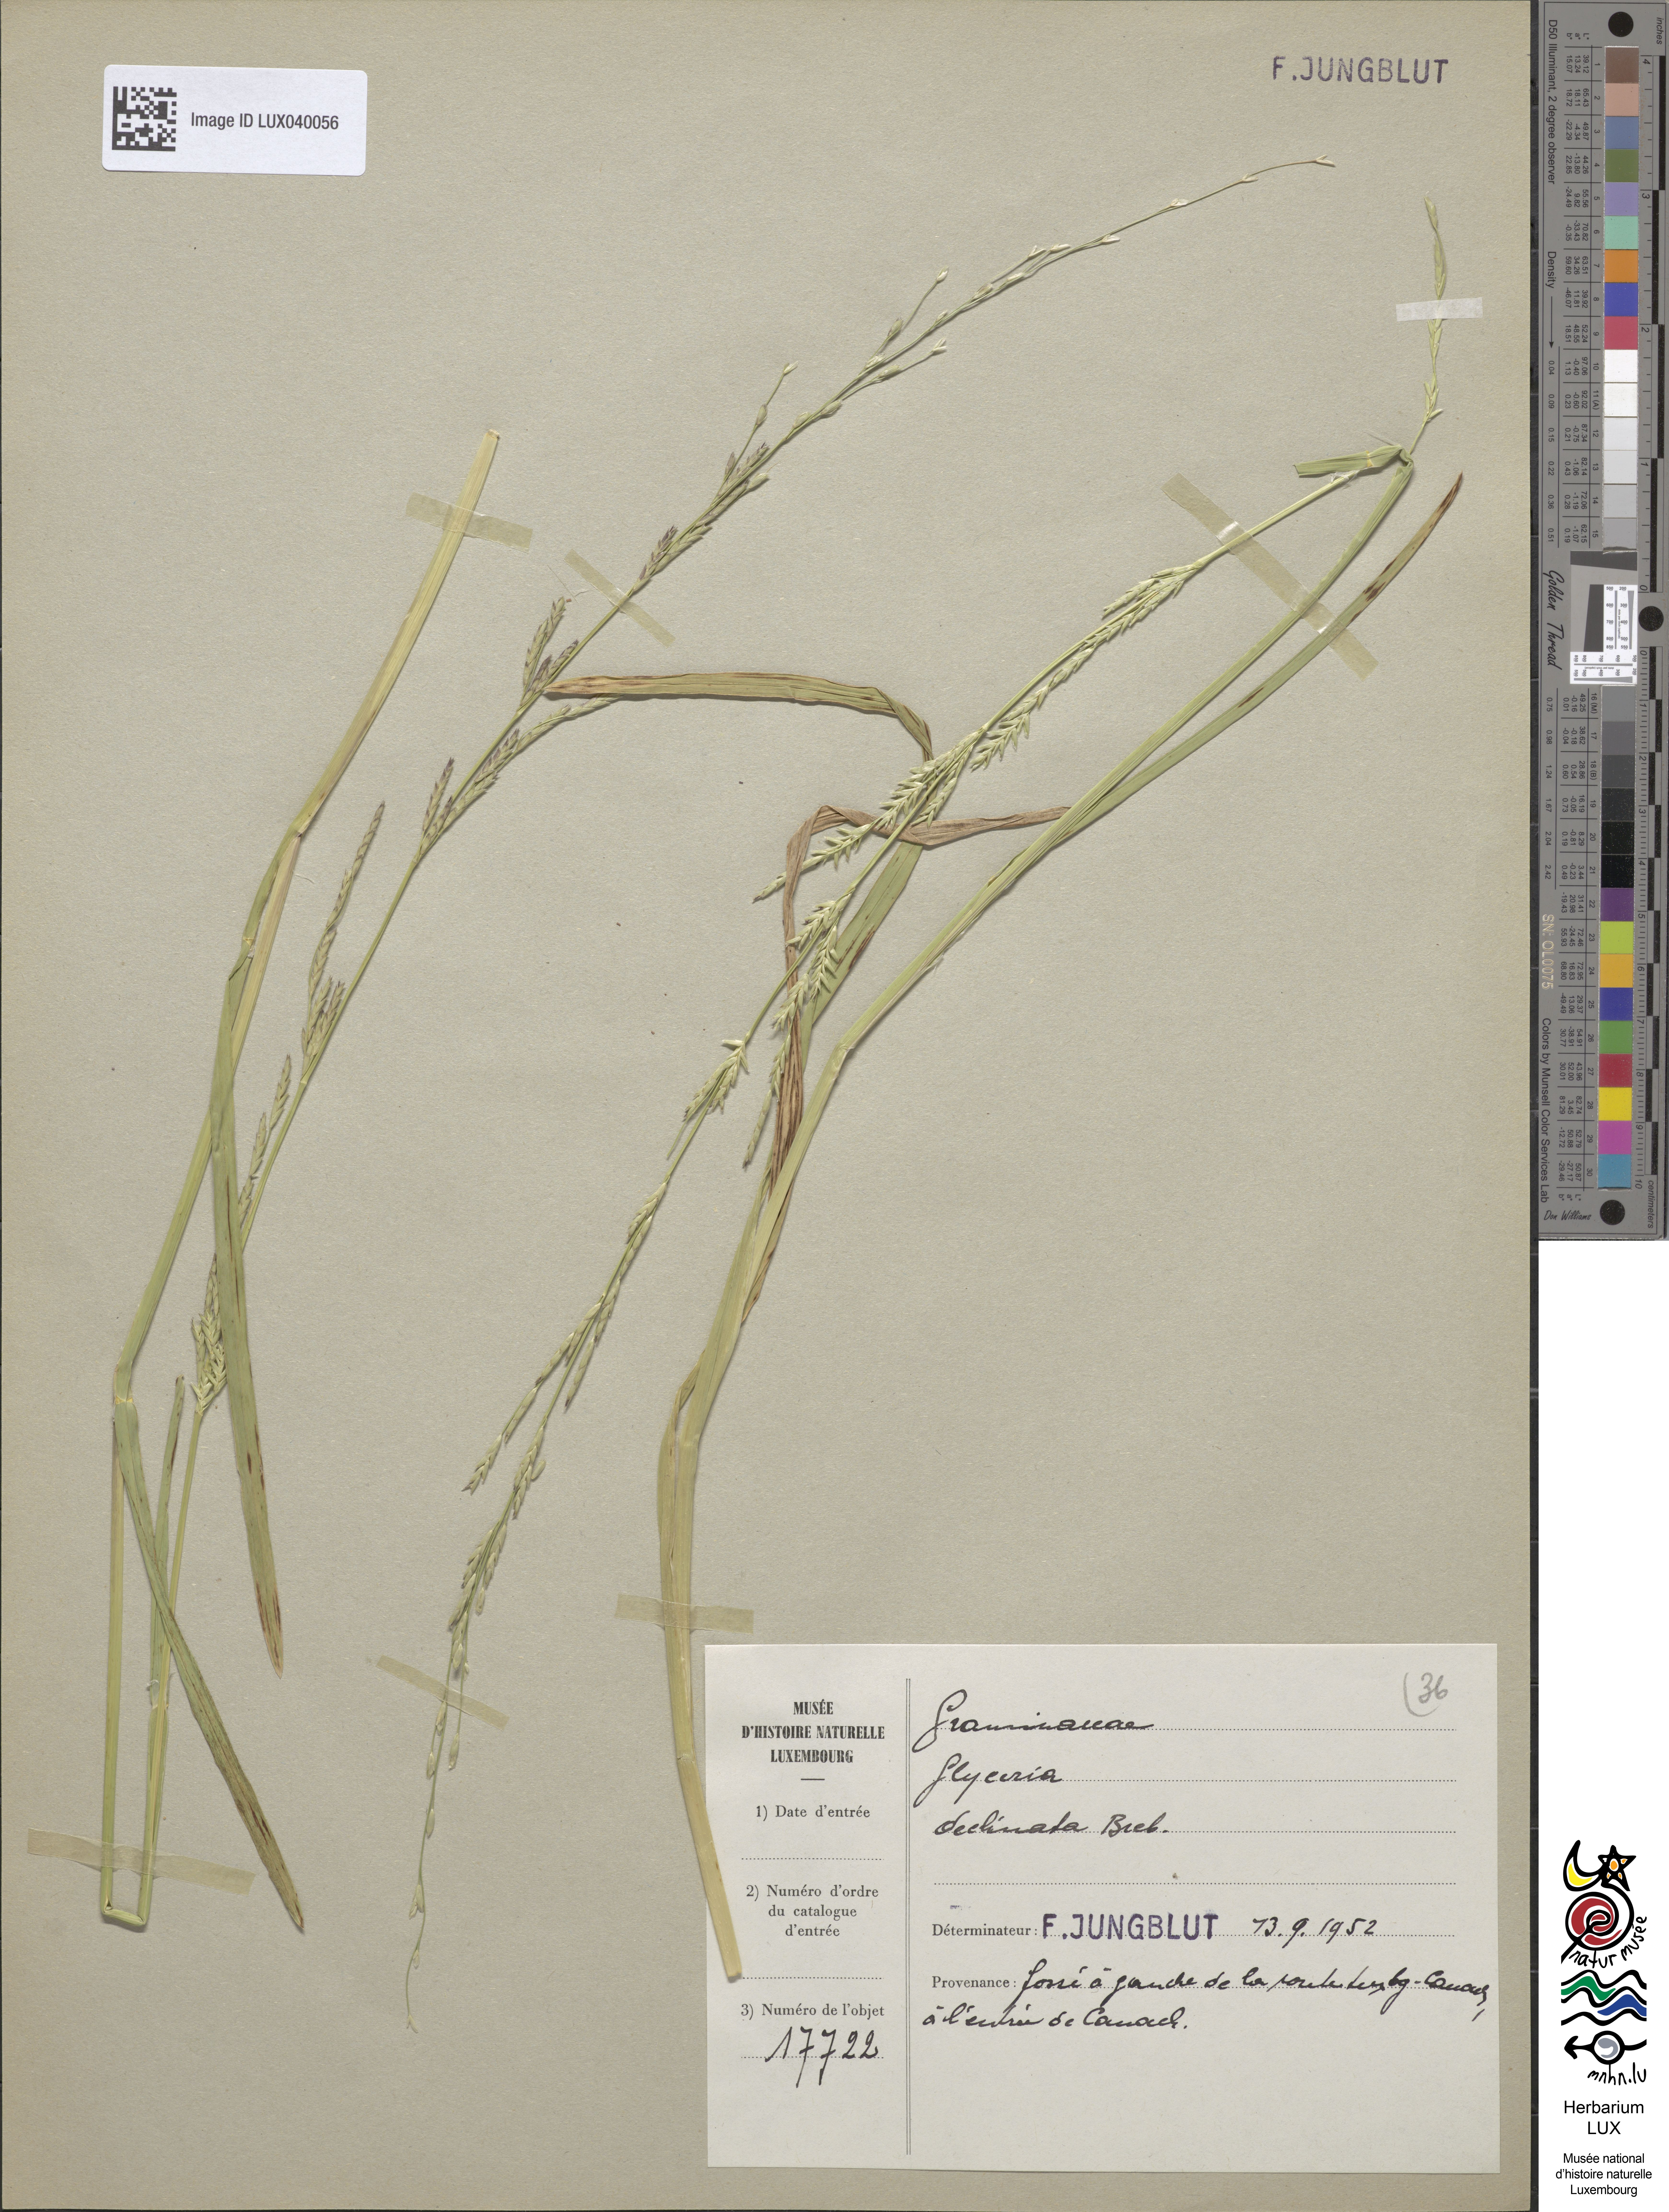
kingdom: Plantae
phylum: Tracheophyta
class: Liliopsida
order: Poales
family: Poaceae
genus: Glyceria
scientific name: Glyceria declinata
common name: Small sweet-grass
